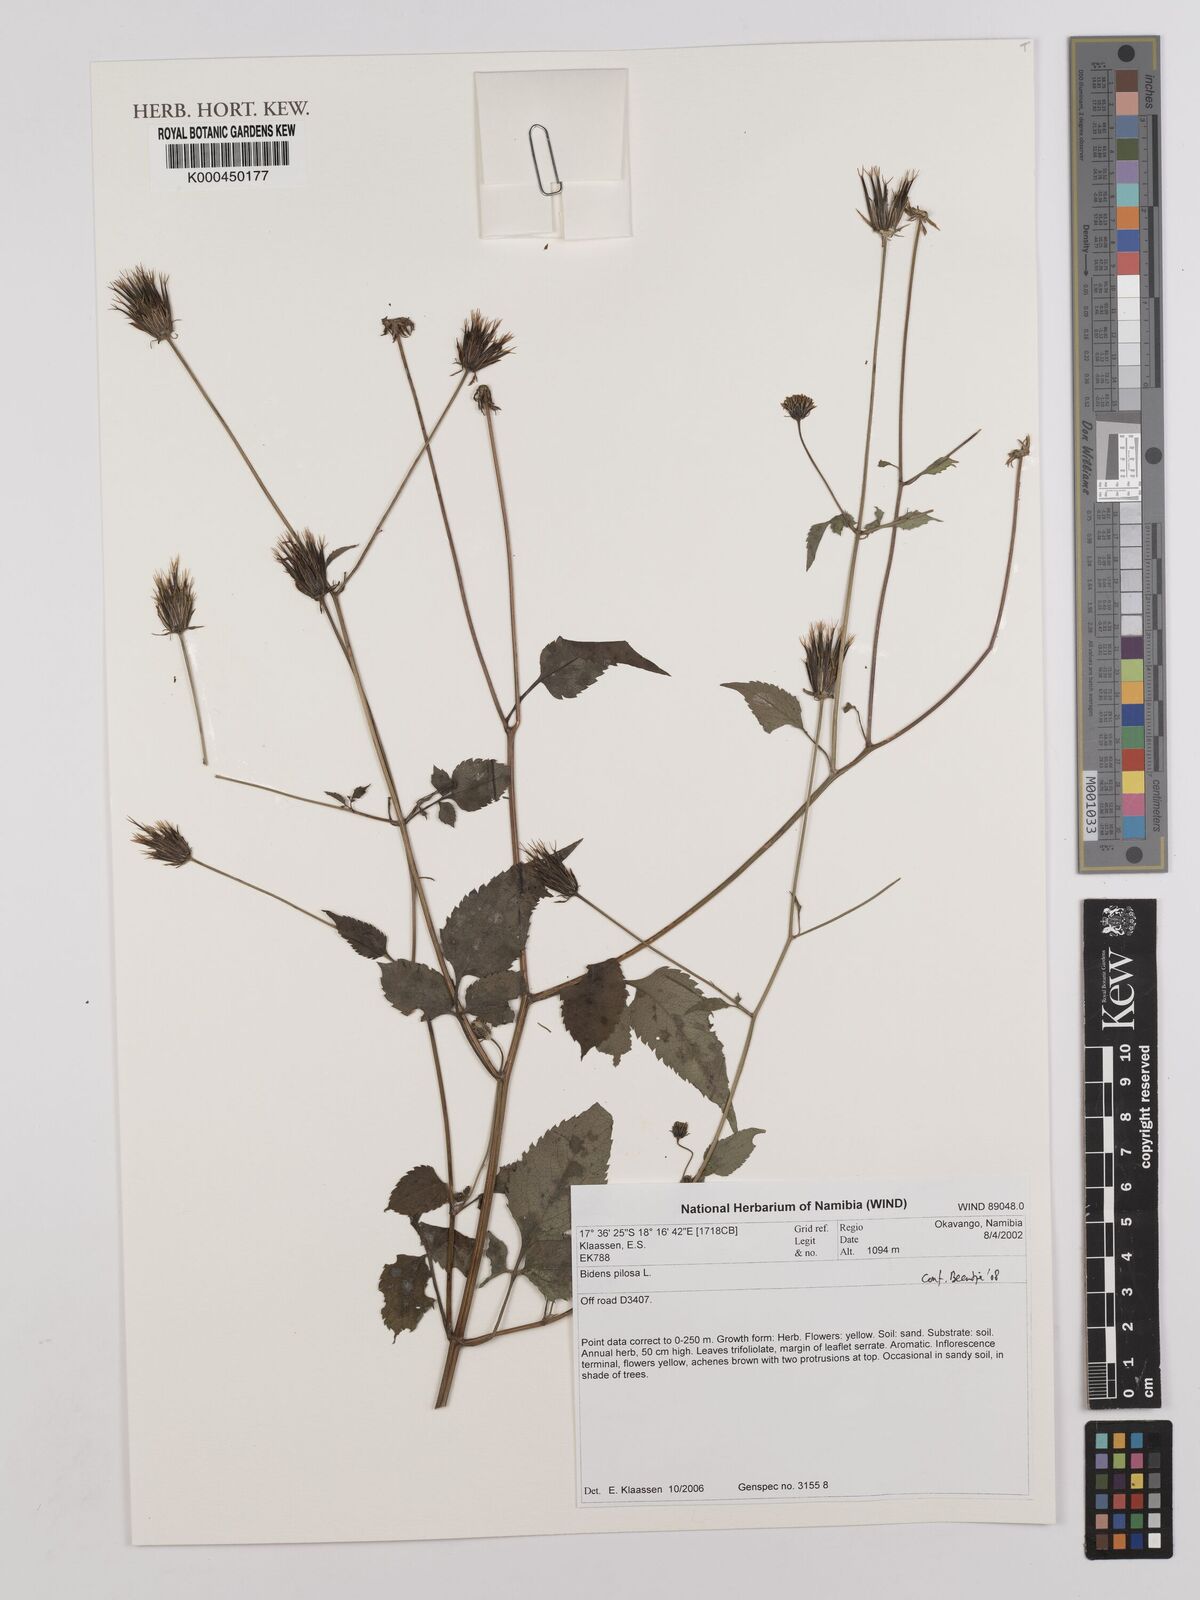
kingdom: Plantae
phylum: Tracheophyta
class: Magnoliopsida
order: Asterales
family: Asteraceae
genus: Bidens
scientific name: Bidens pilosa
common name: Black-jack
